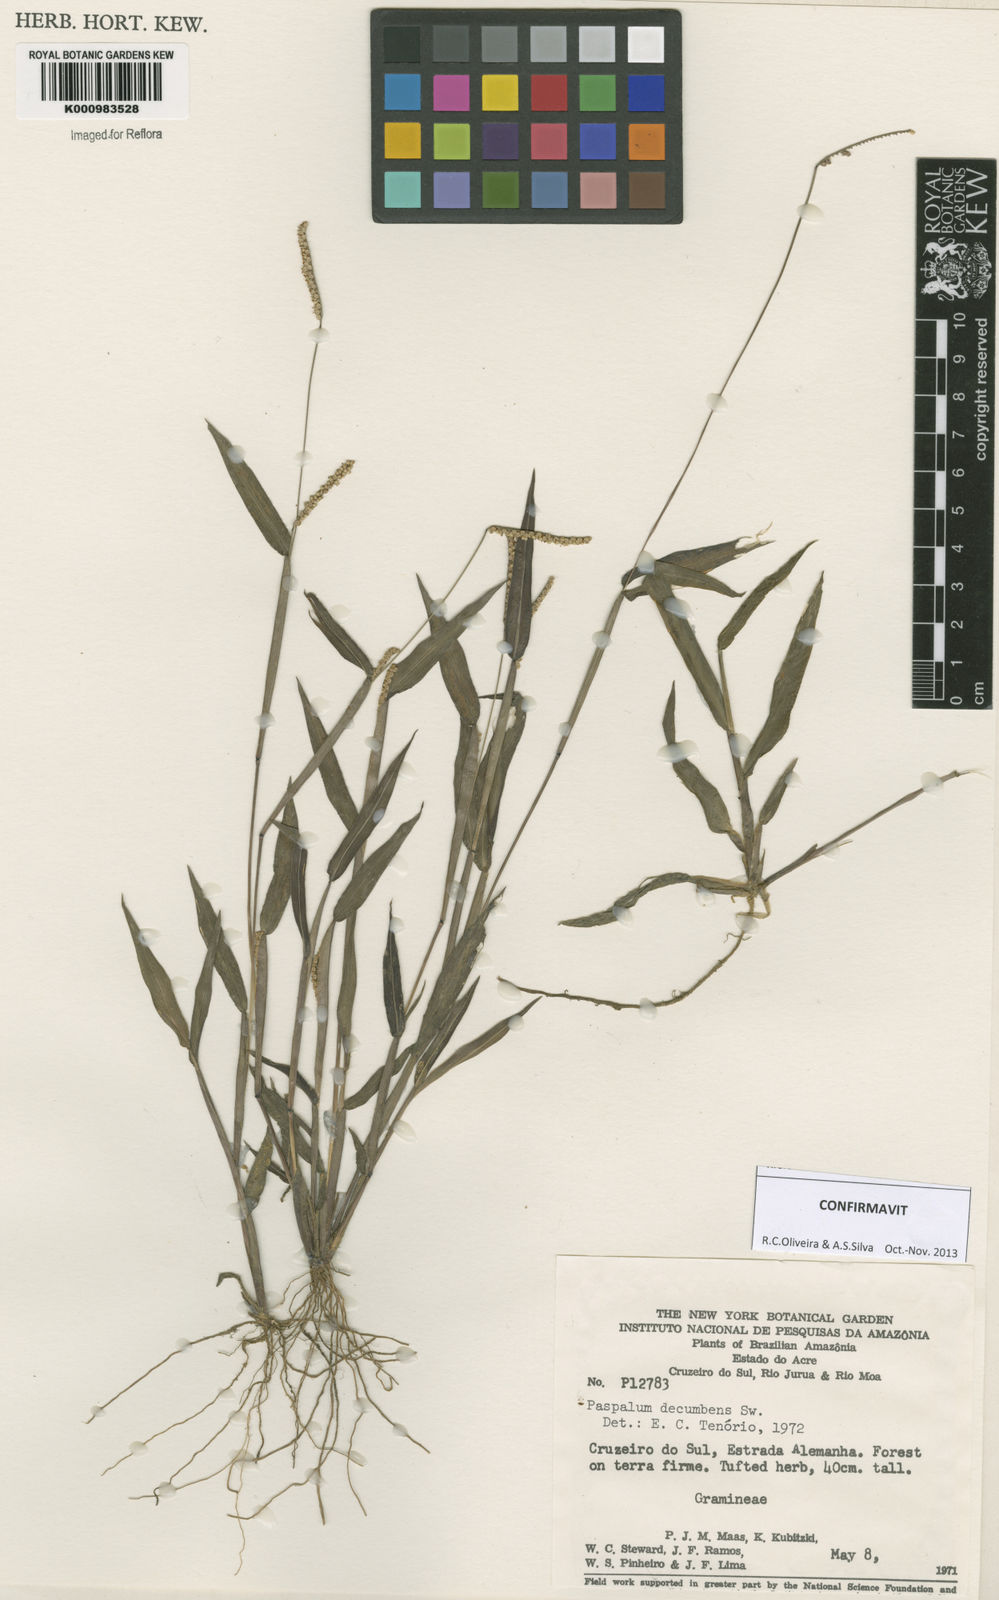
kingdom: Plantae
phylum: Tracheophyta
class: Liliopsida
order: Poales
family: Poaceae
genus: Paspalum
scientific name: Paspalum decumbens
